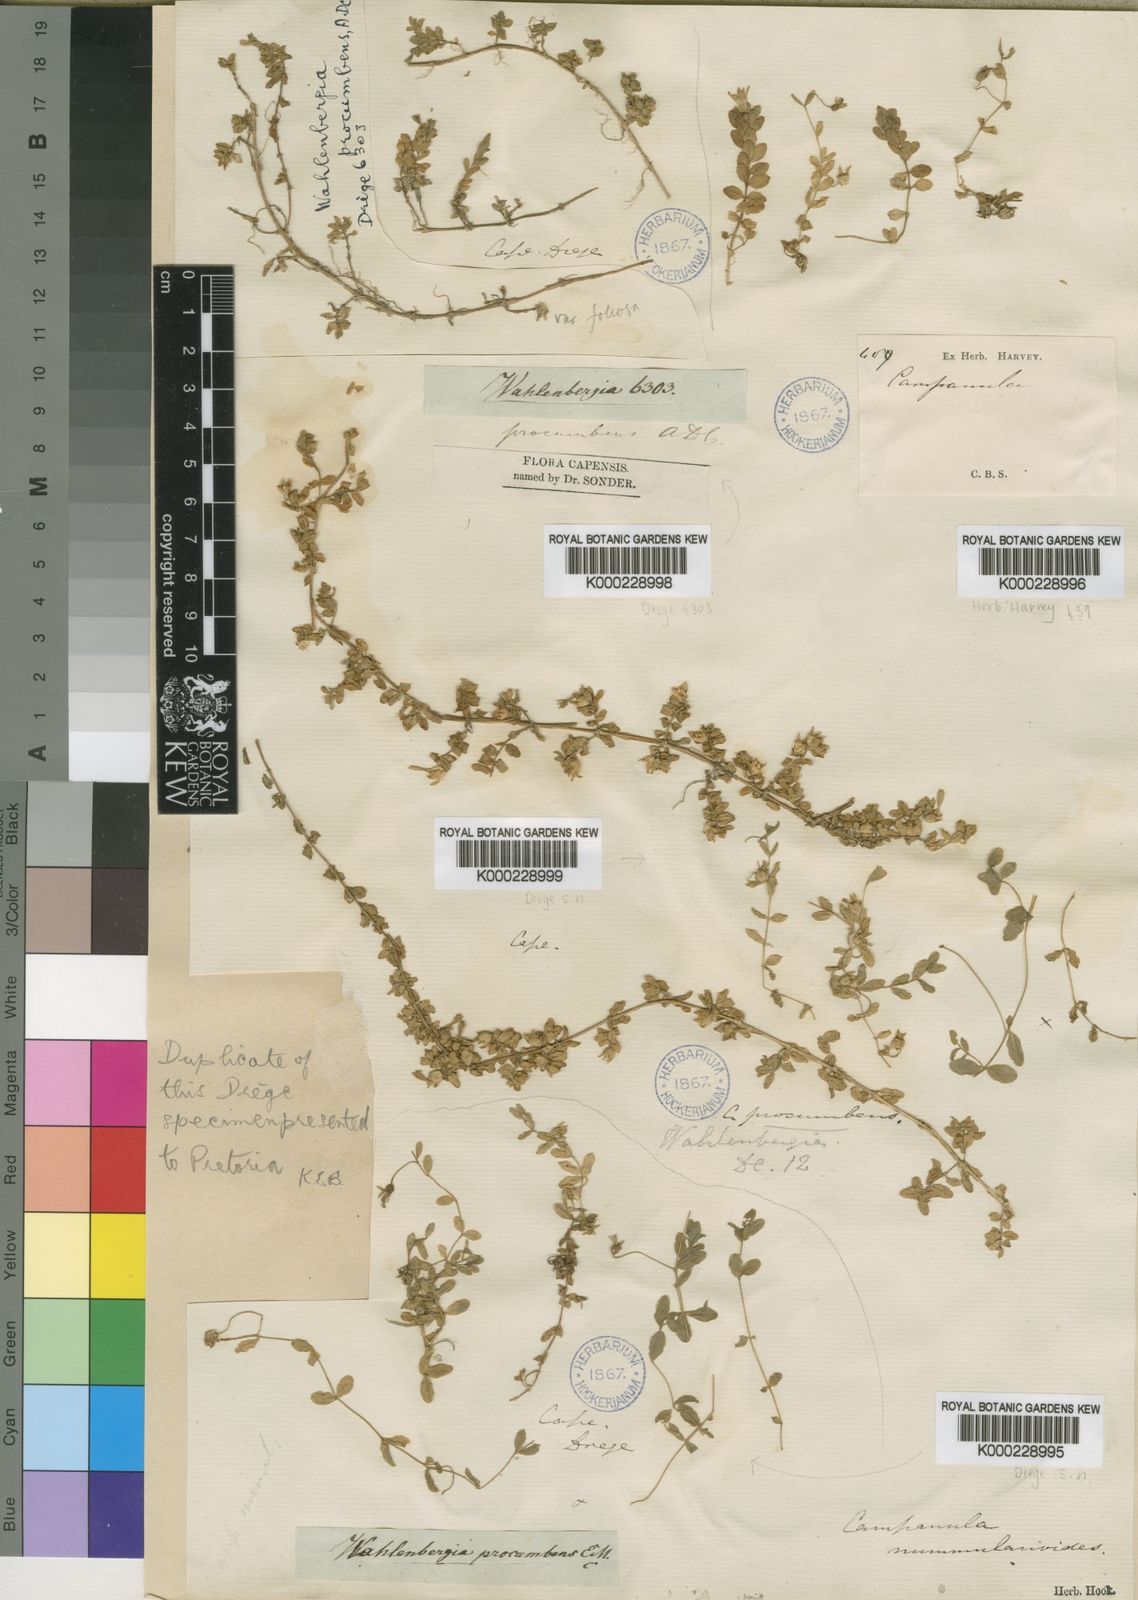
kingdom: Plantae
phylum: Tracheophyta
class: Magnoliopsida
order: Asterales
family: Campanulaceae
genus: Wahlenbergia
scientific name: Wahlenbergia procumbens
